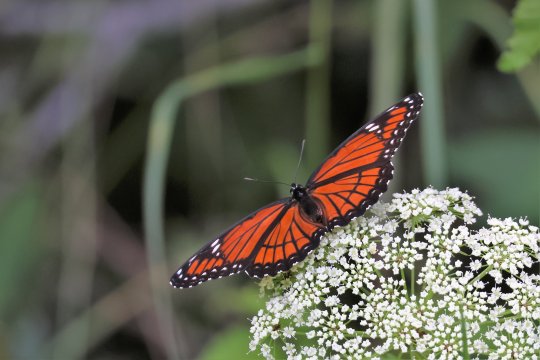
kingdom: Animalia
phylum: Arthropoda
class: Insecta
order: Lepidoptera
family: Nymphalidae
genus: Limenitis
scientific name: Limenitis archippus
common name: Viceroy
